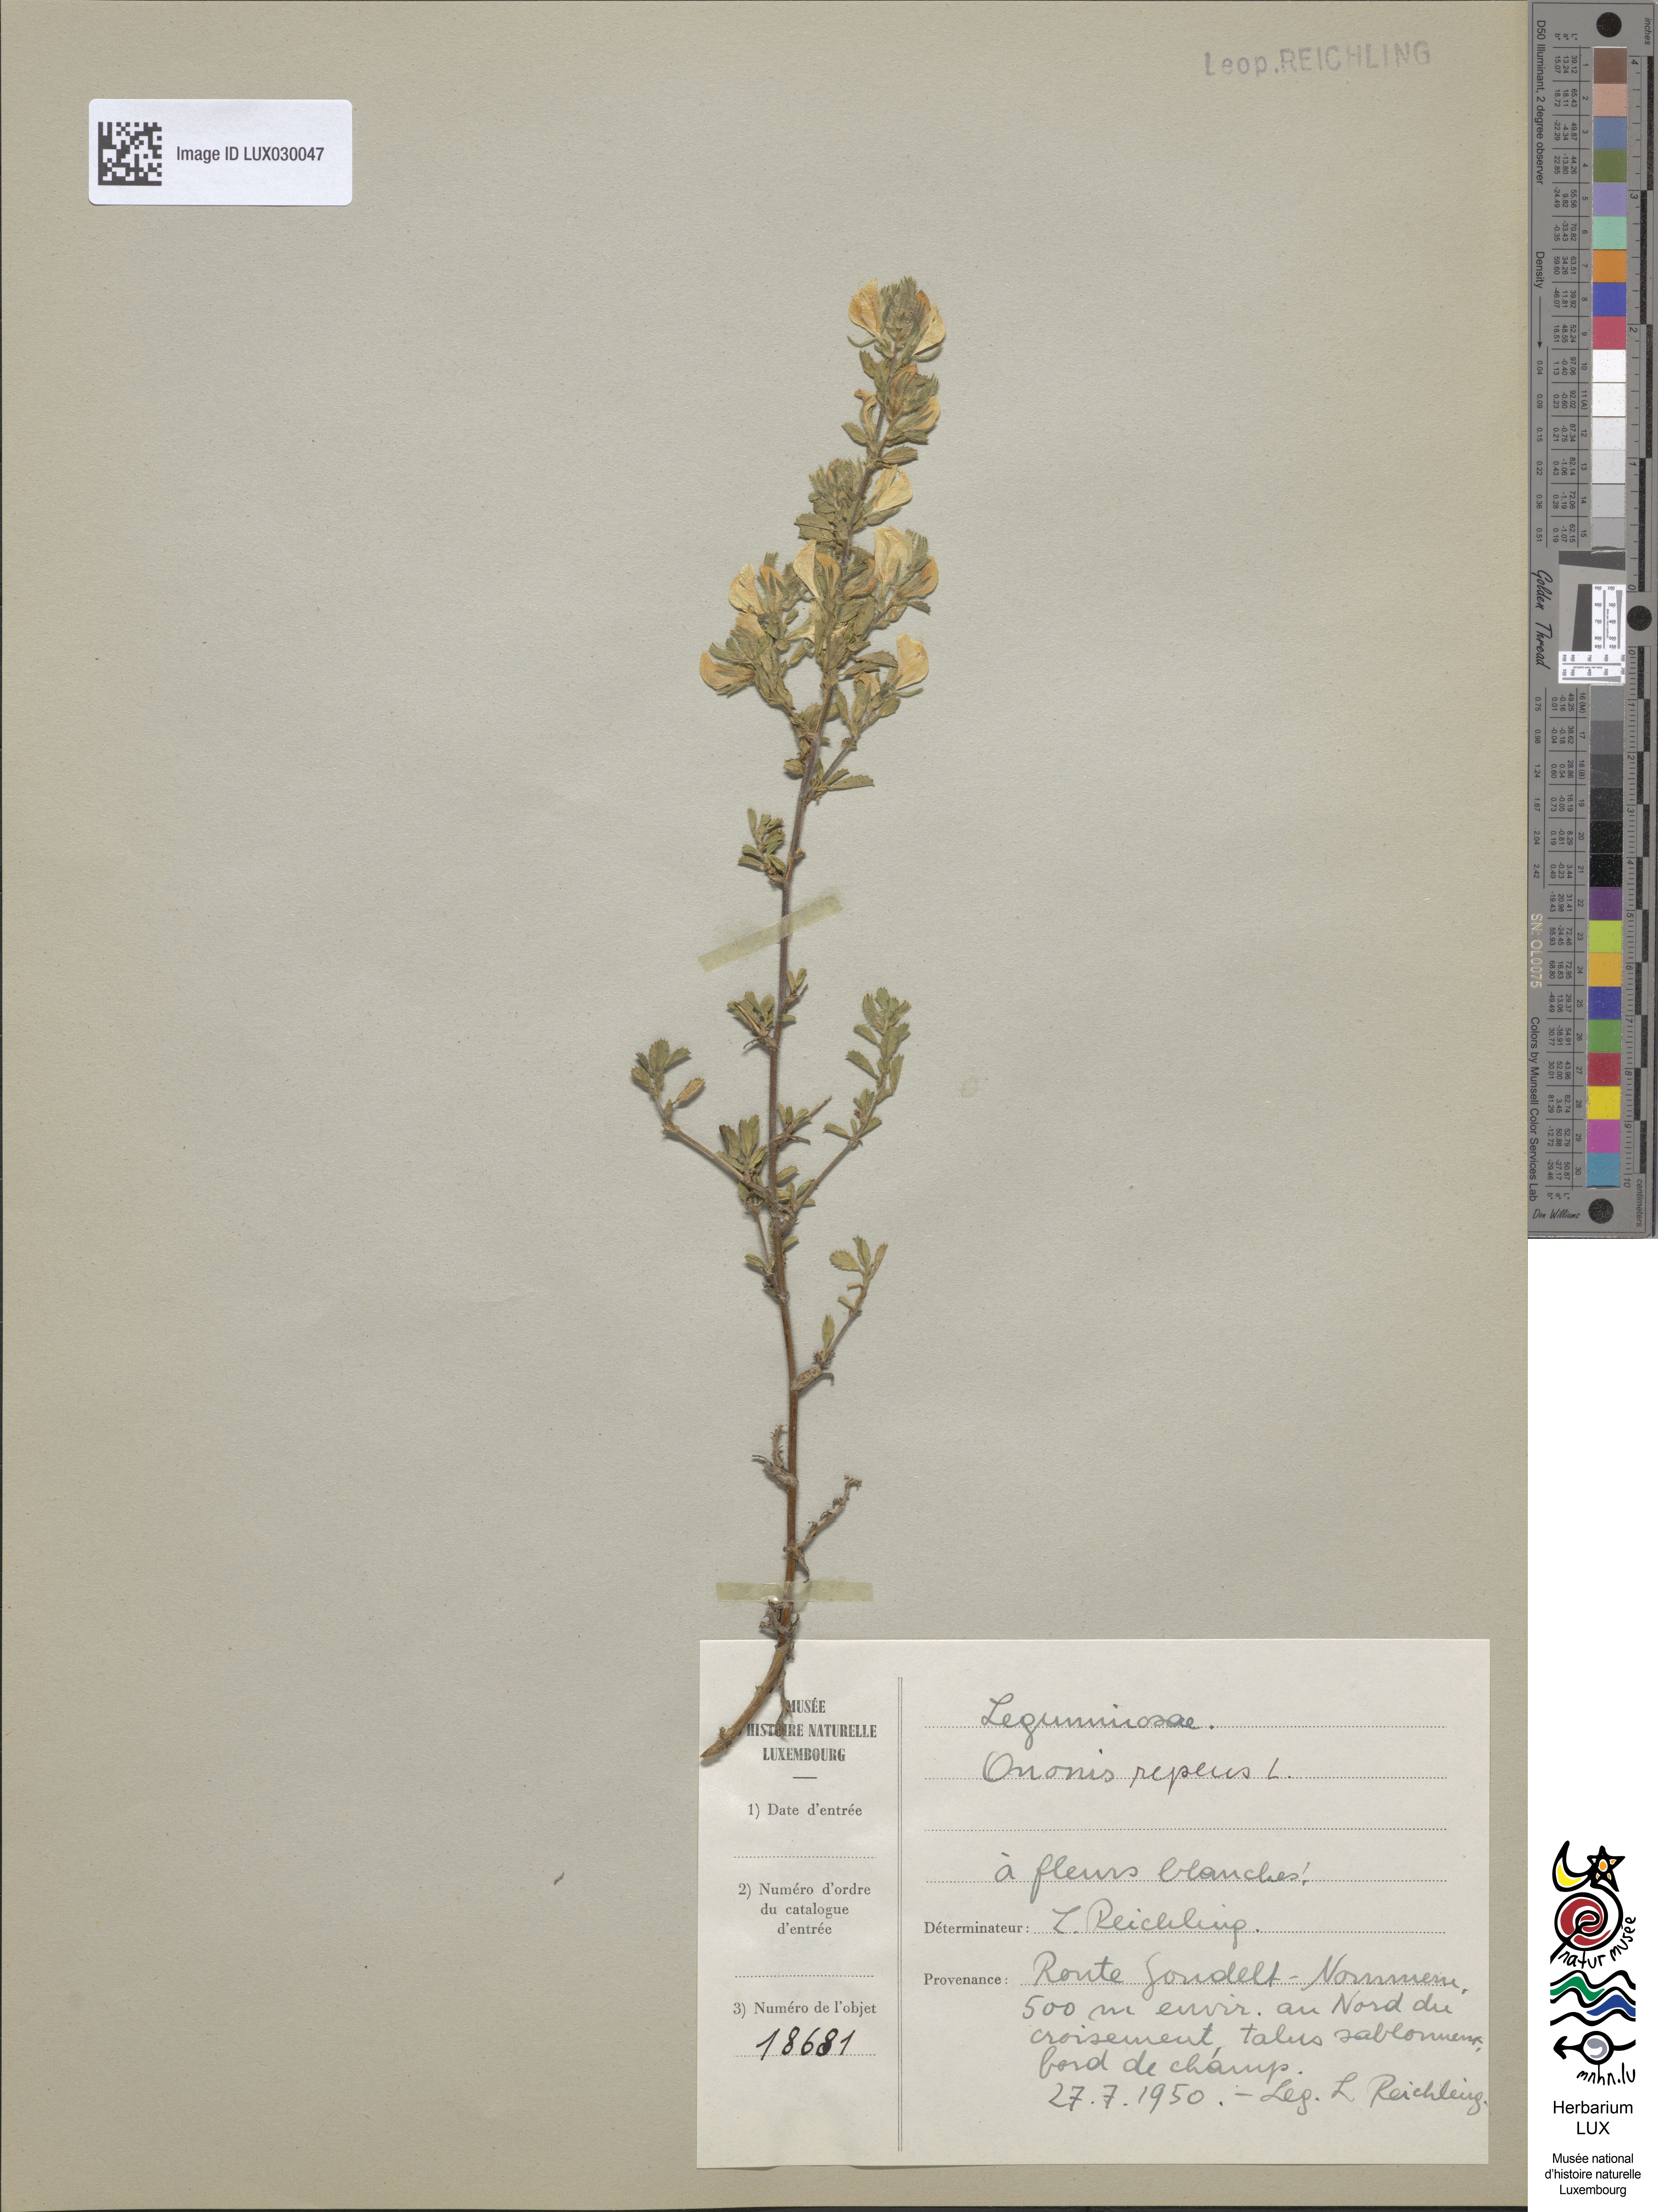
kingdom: Plantae
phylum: Tracheophyta
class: Magnoliopsida
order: Fabales
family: Fabaceae
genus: Ononis
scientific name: Ononis spinosa
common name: Spiny restharrow
